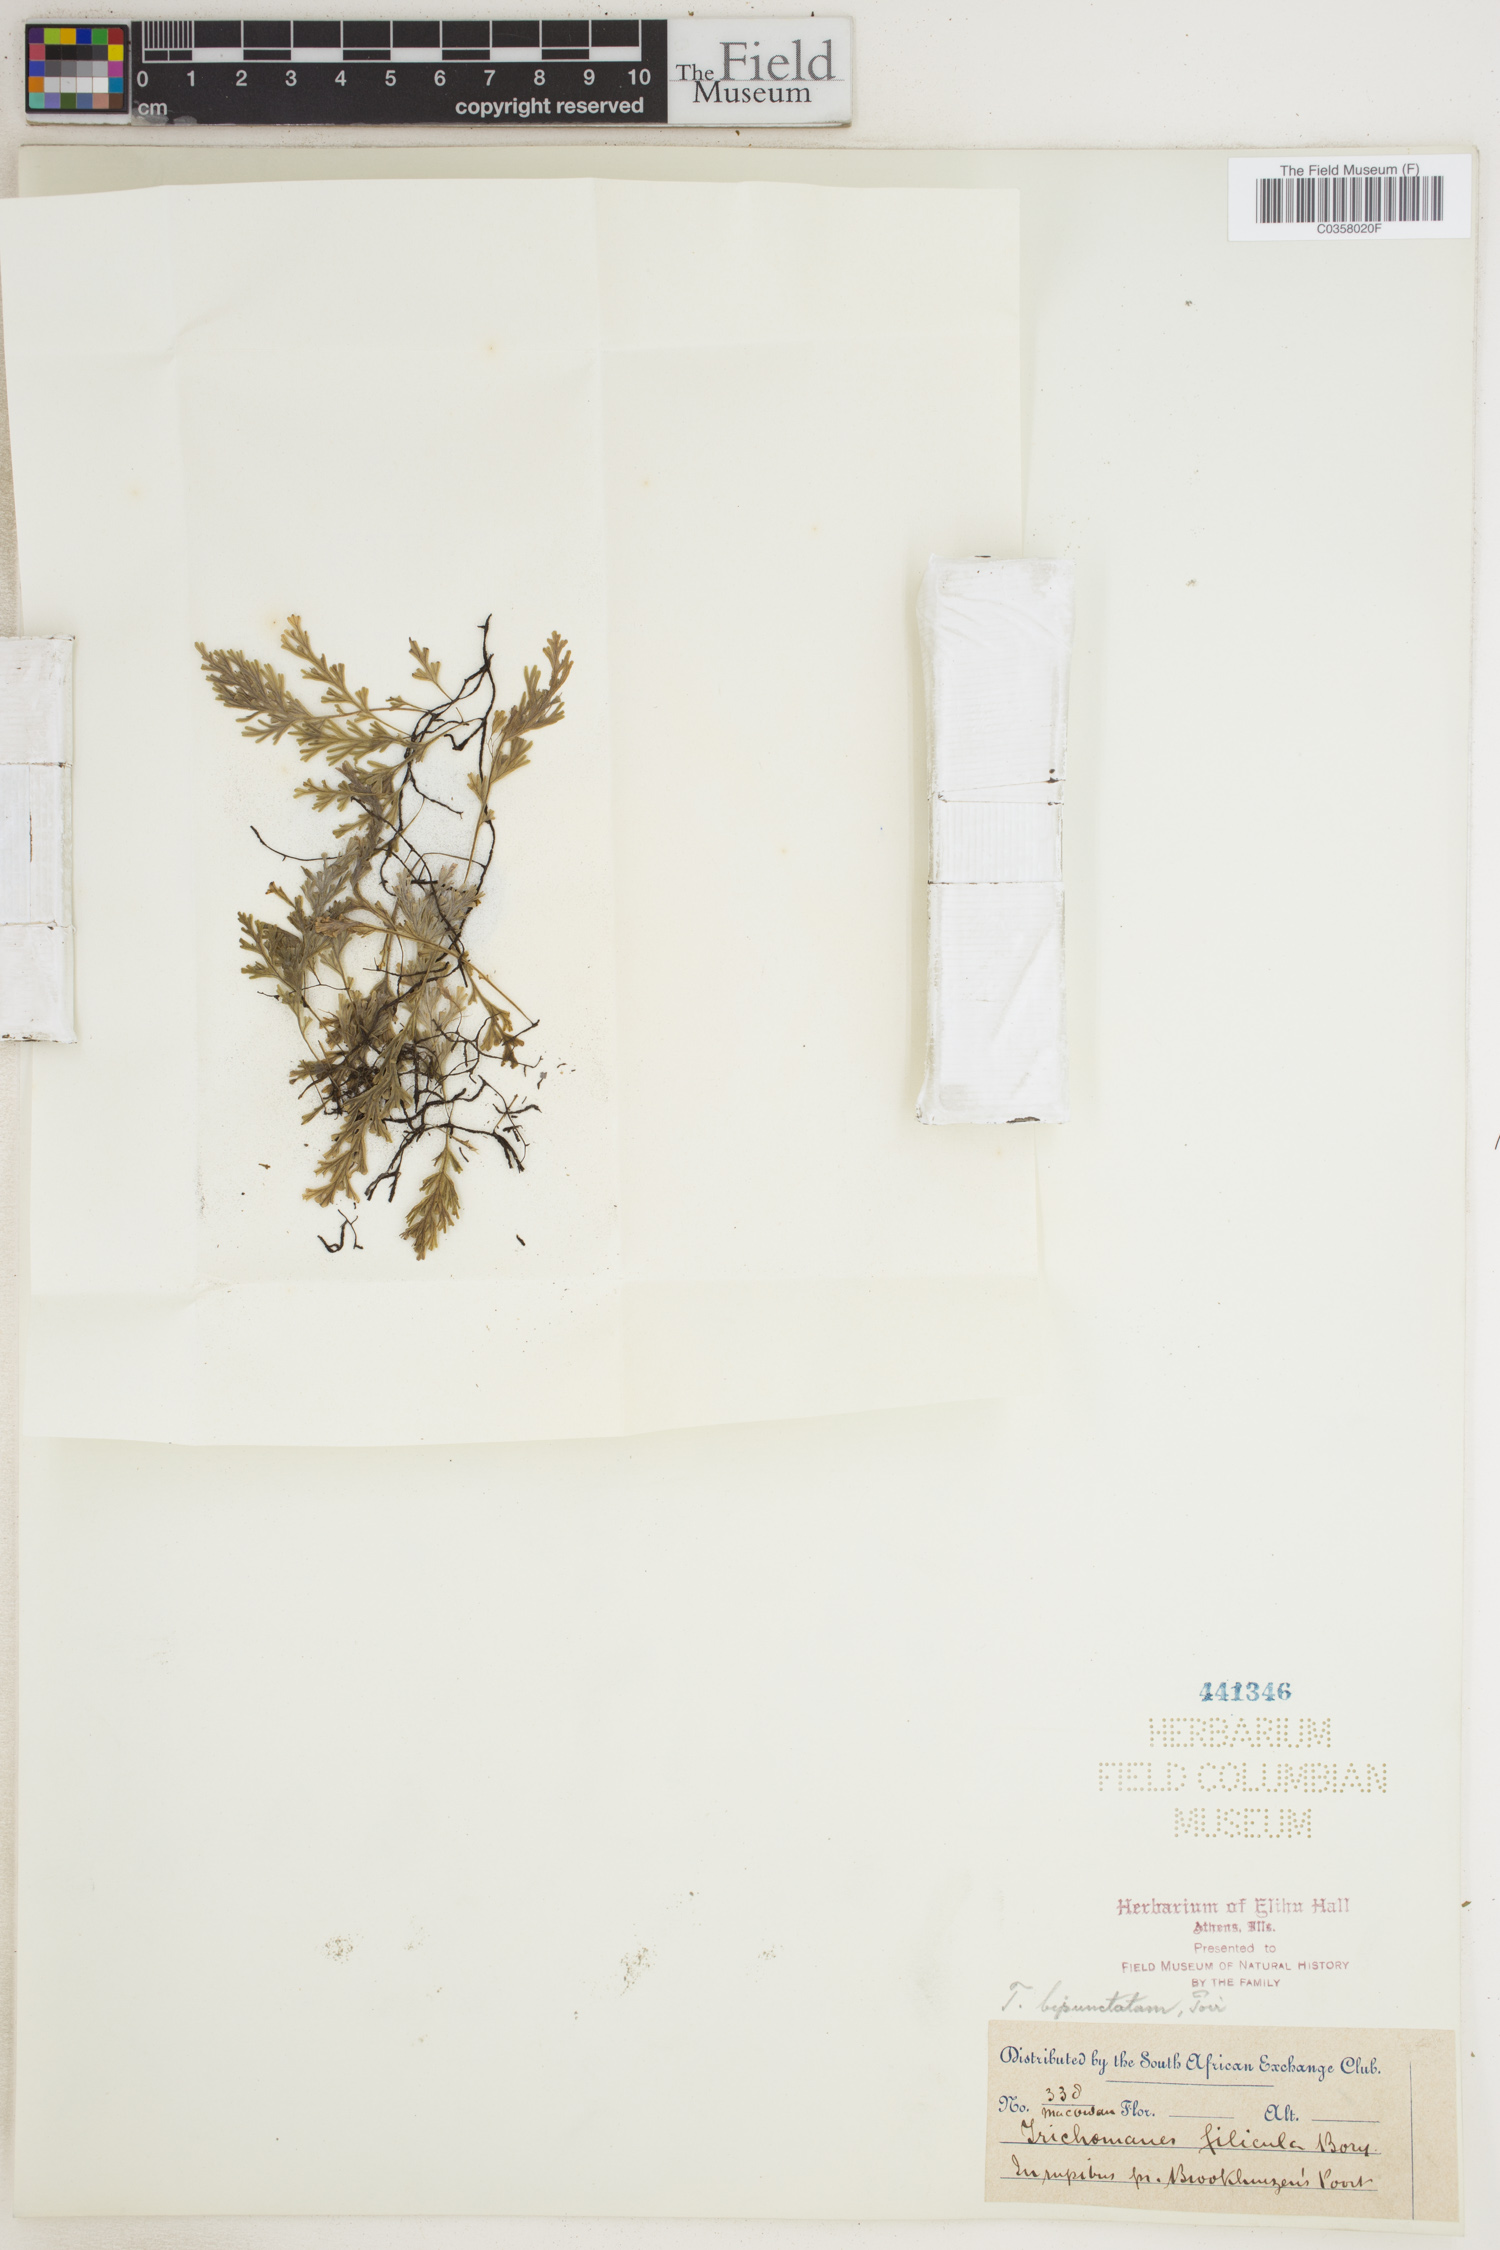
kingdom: Plantae
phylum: Tracheophyta
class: Polypodiopsida
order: Hymenophyllales
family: Hymenophyllaceae
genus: Crepidomanes
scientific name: Crepidomanes bipunctatum
